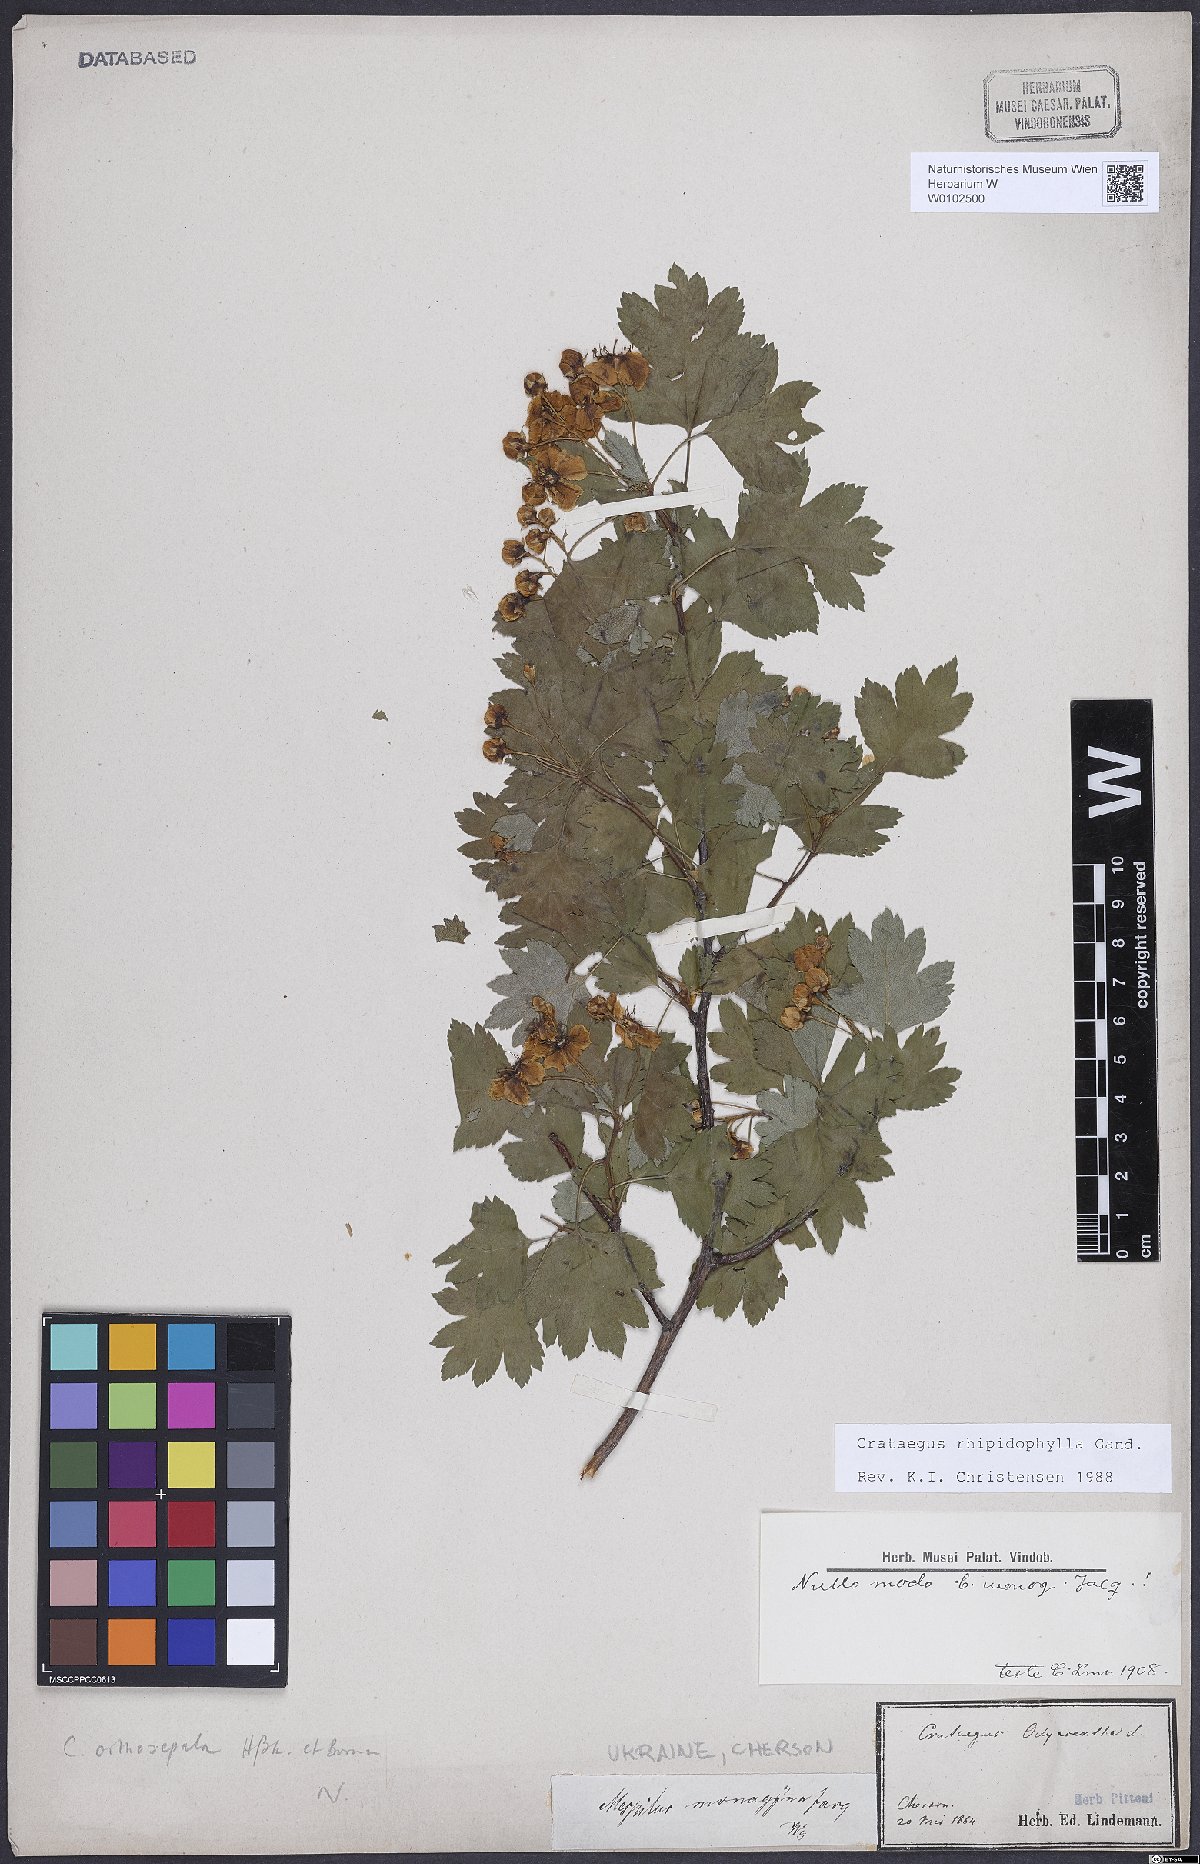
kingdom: Plantae
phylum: Tracheophyta
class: Magnoliopsida
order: Rosales
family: Rosaceae
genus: Crataegus
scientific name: Crataegus rhipidophylla
